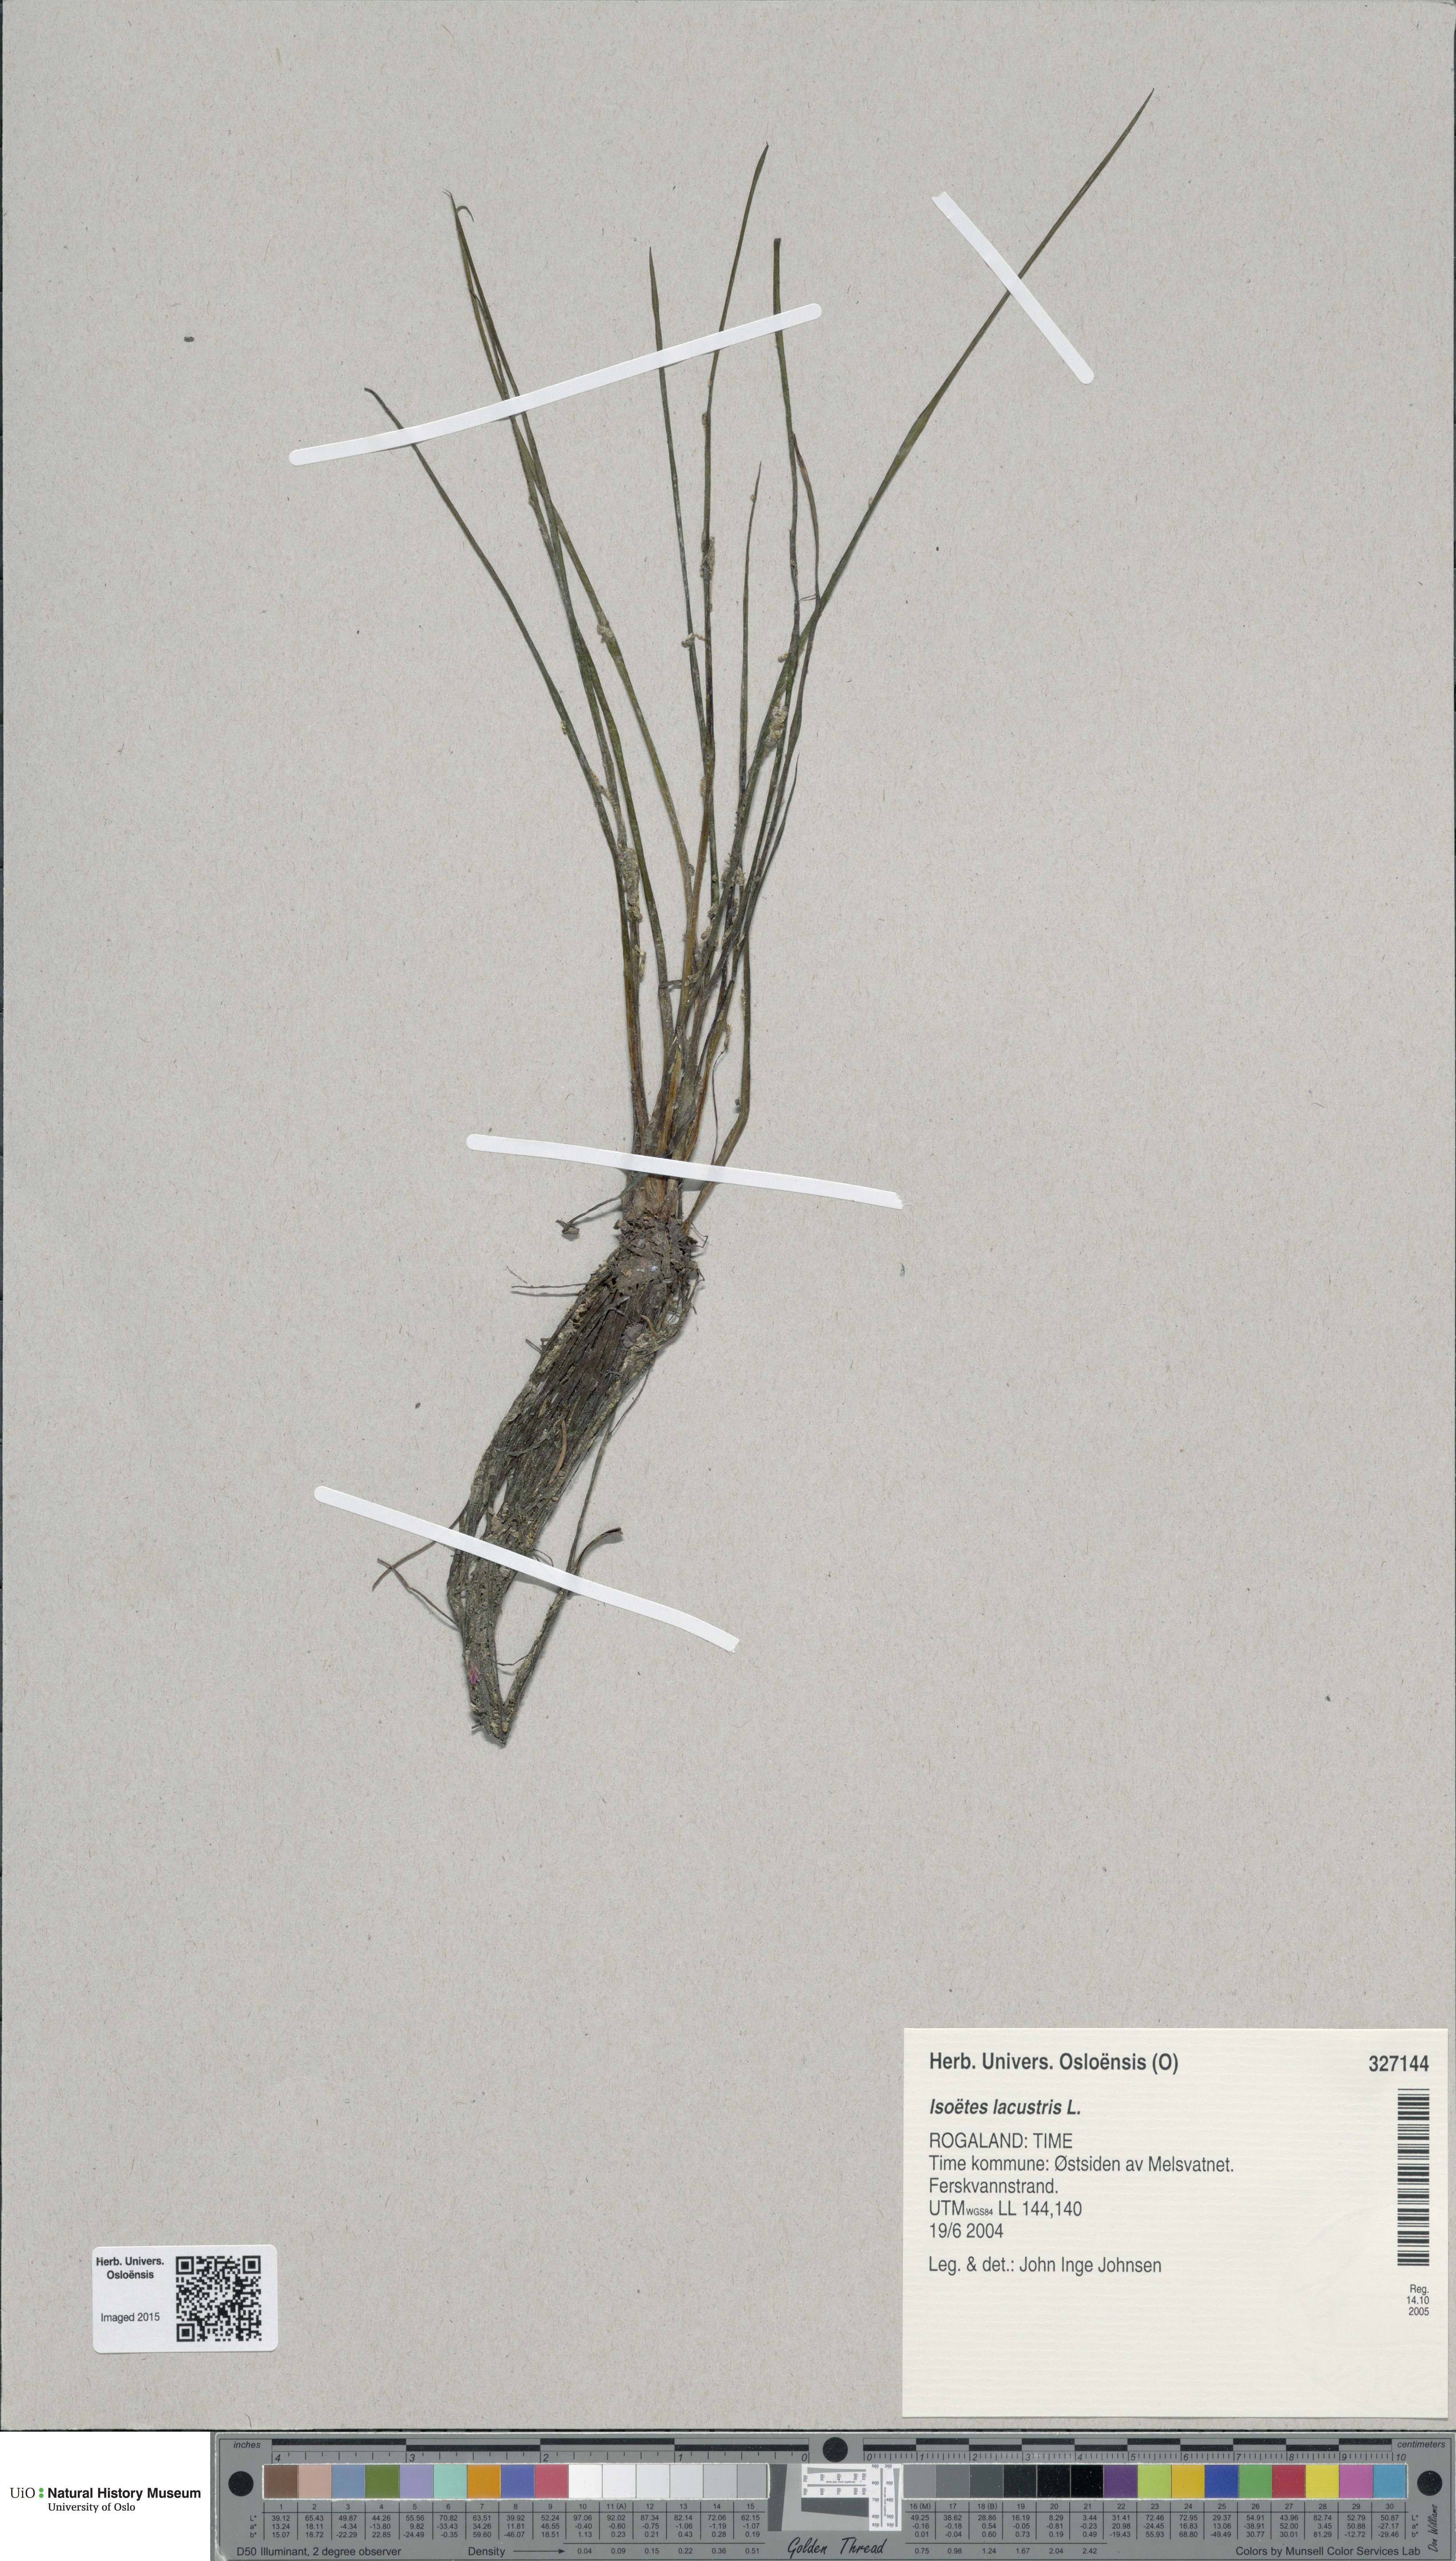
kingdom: Plantae
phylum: Tracheophyta
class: Lycopodiopsida
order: Isoetales
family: Isoetaceae
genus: Isoetes
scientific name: Isoetes lacustris
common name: Common quillwort
